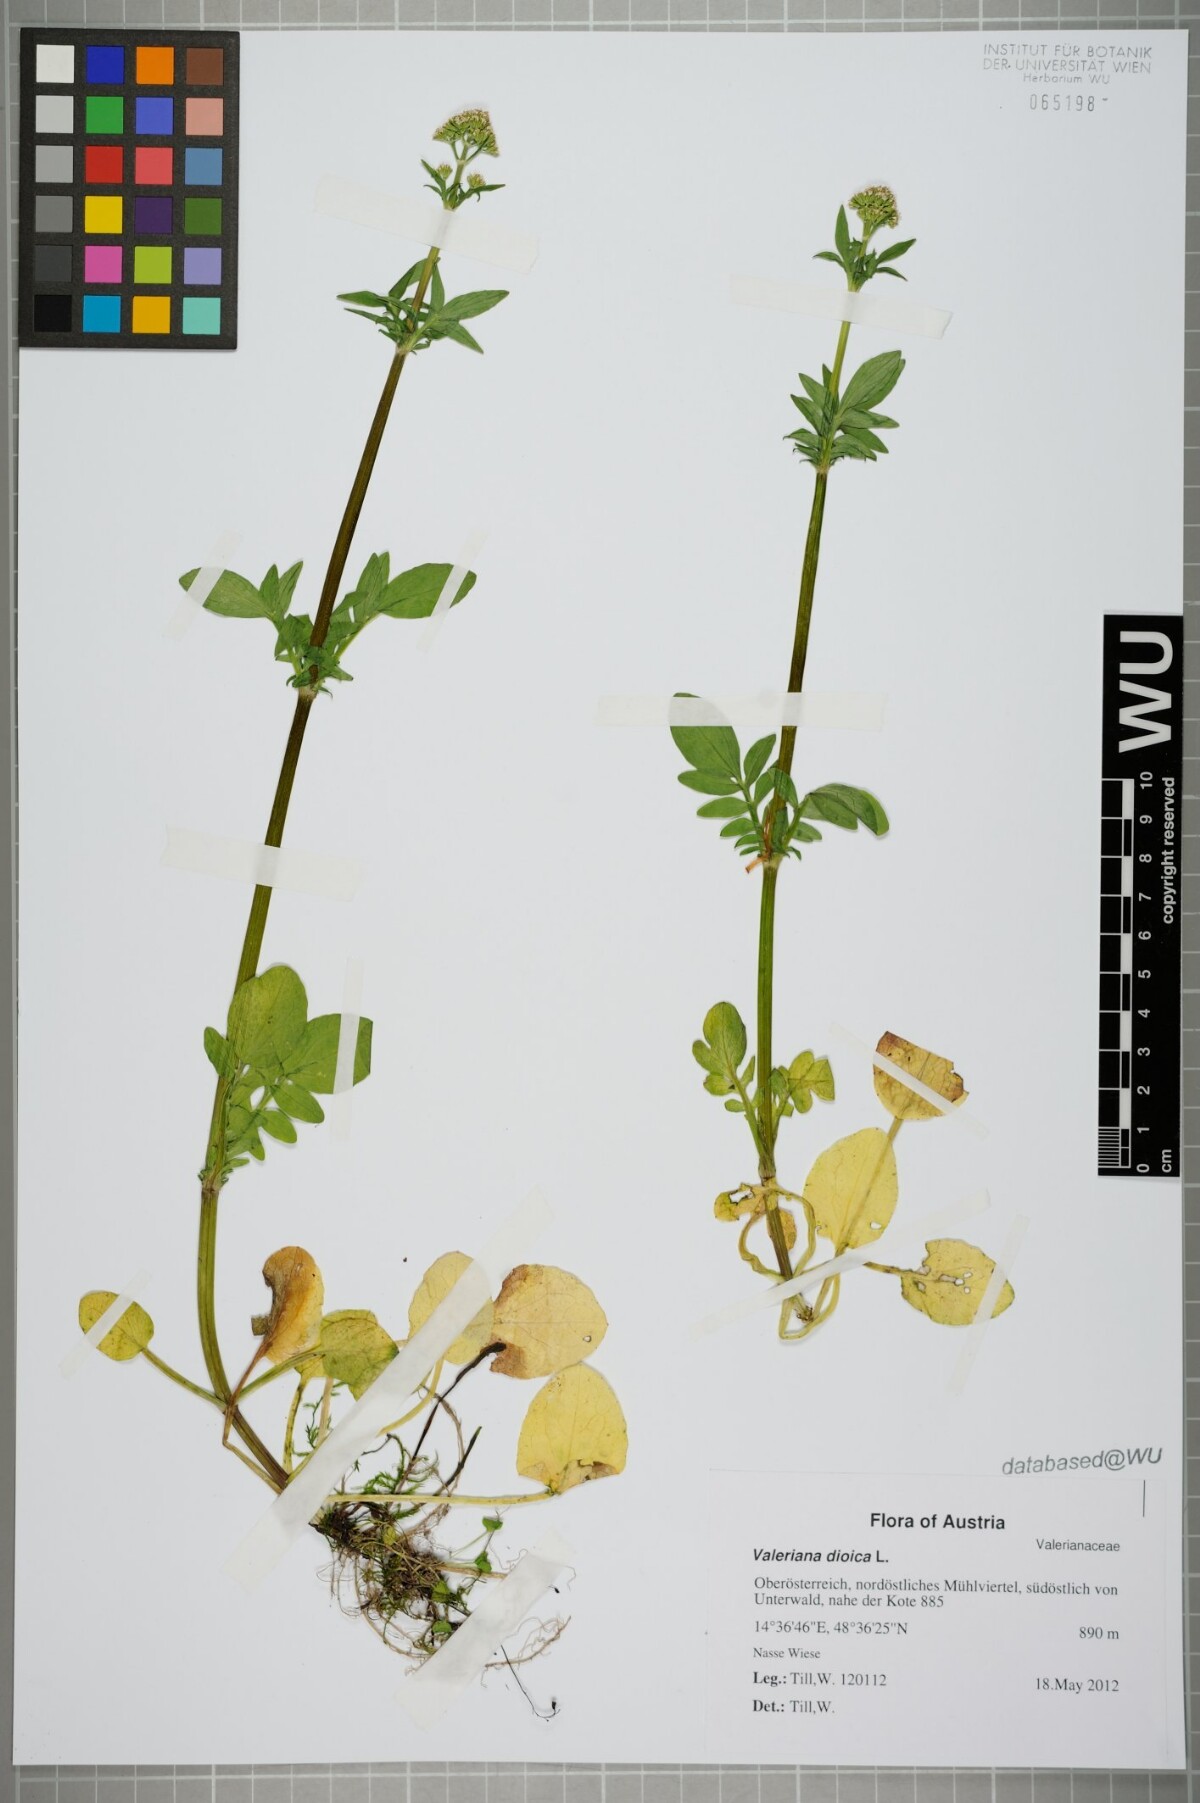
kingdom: Plantae
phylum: Tracheophyta
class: Magnoliopsida
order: Dipsacales
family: Caprifoliaceae
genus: Valeriana
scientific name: Valeriana dioica
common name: Marsh valerian
